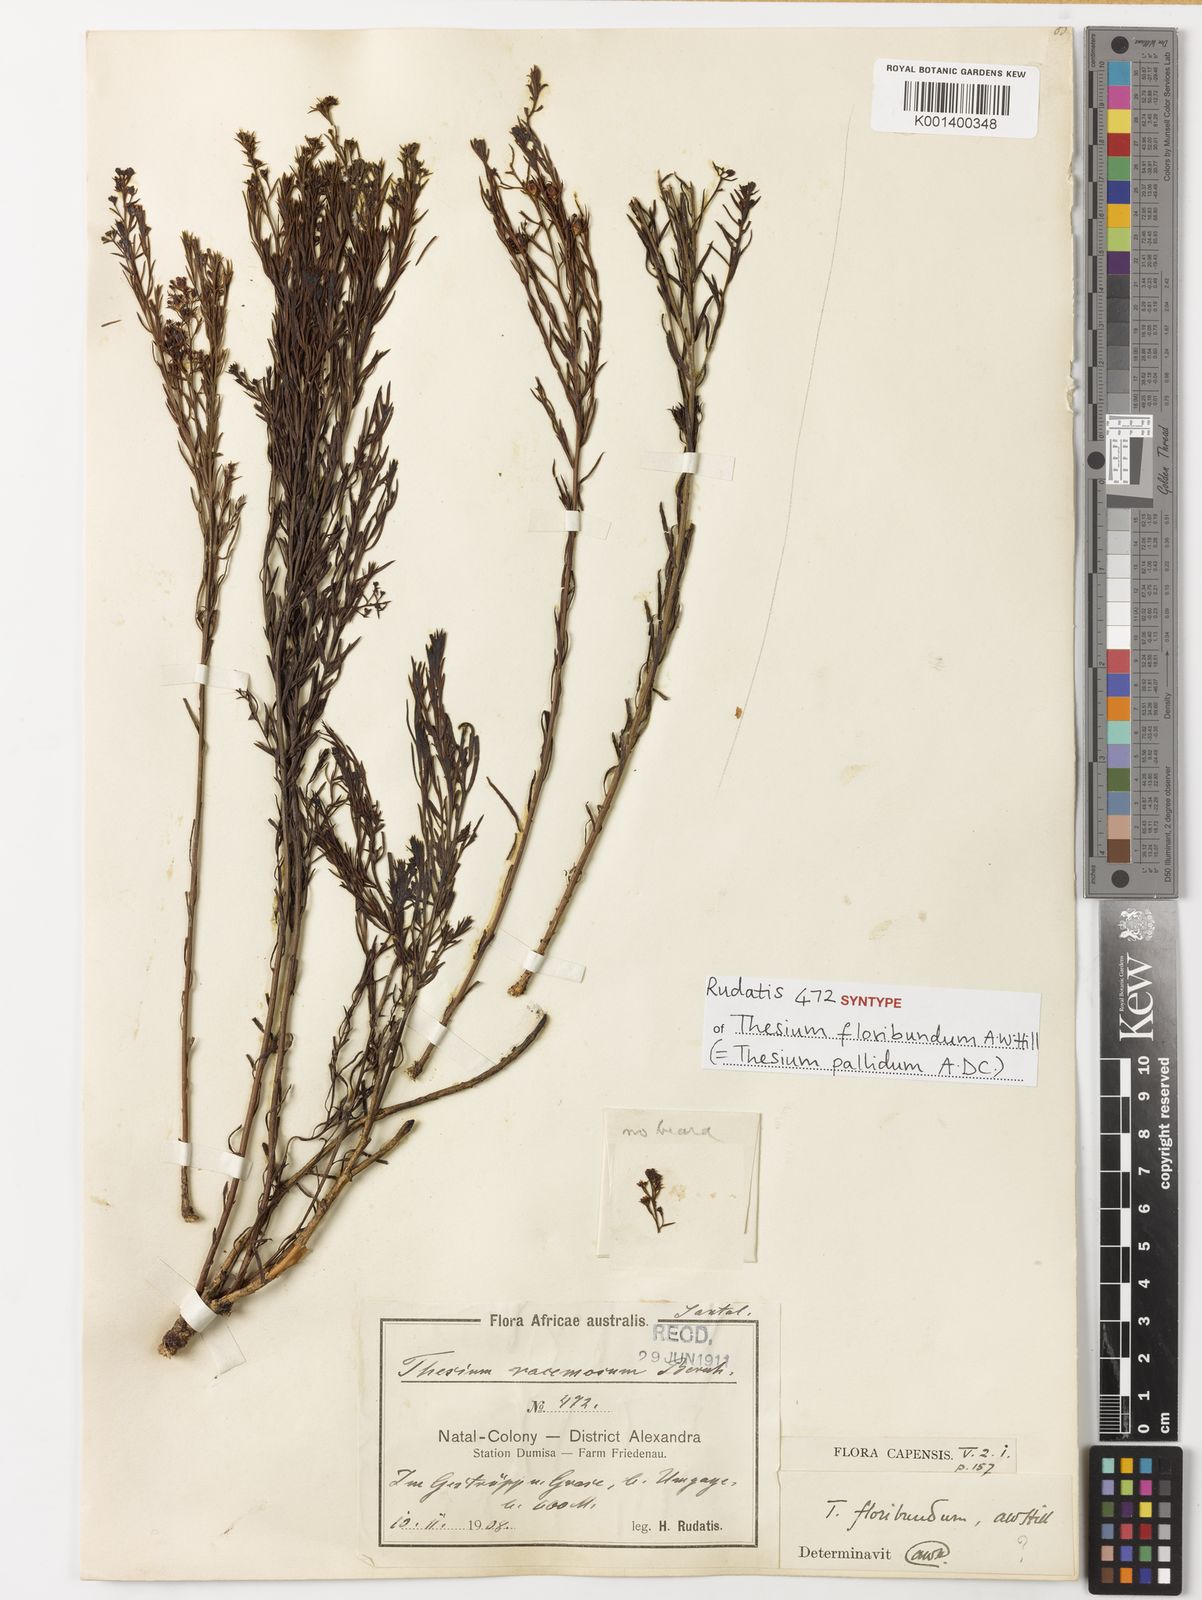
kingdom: Plantae
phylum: Tracheophyta
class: Magnoliopsida
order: Santalales
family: Thesiaceae
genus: Thesium
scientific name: Thesium pallidum
